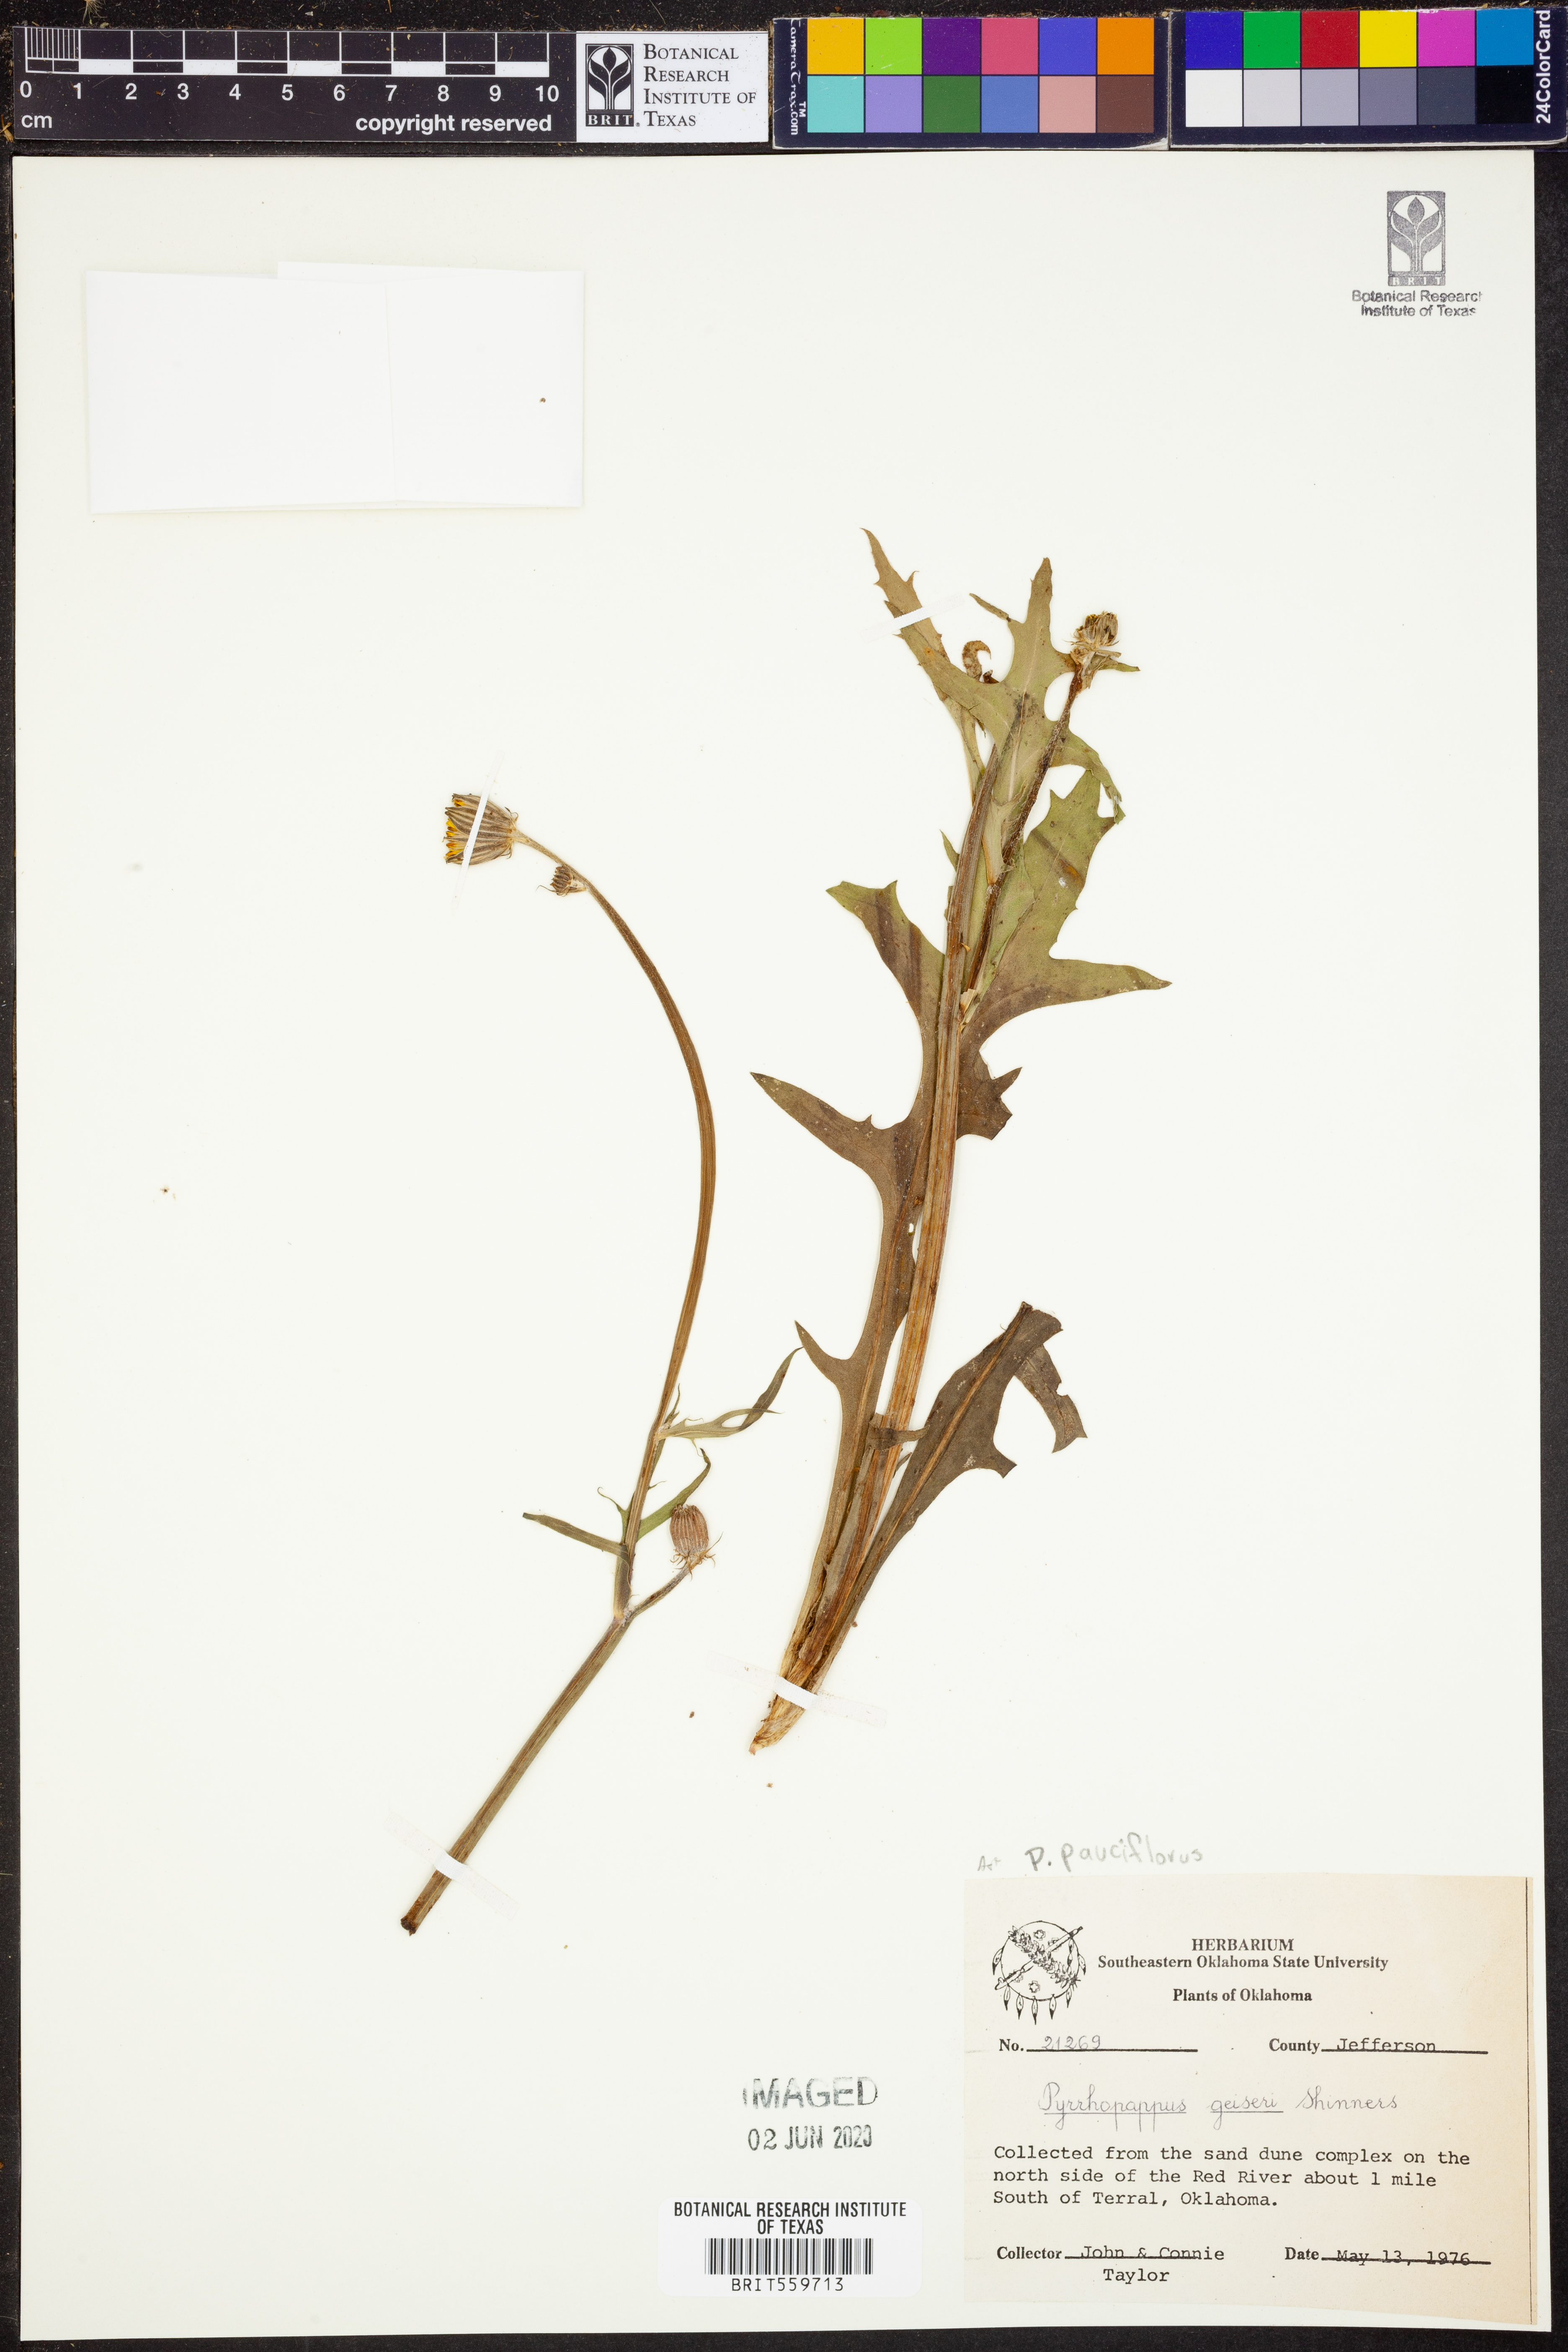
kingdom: Plantae
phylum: Tracheophyta
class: Magnoliopsida
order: Asterales
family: Asteraceae
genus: Pyrrhopappus
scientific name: Pyrrhopappus pauciflorus
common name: Texas false dandelion
